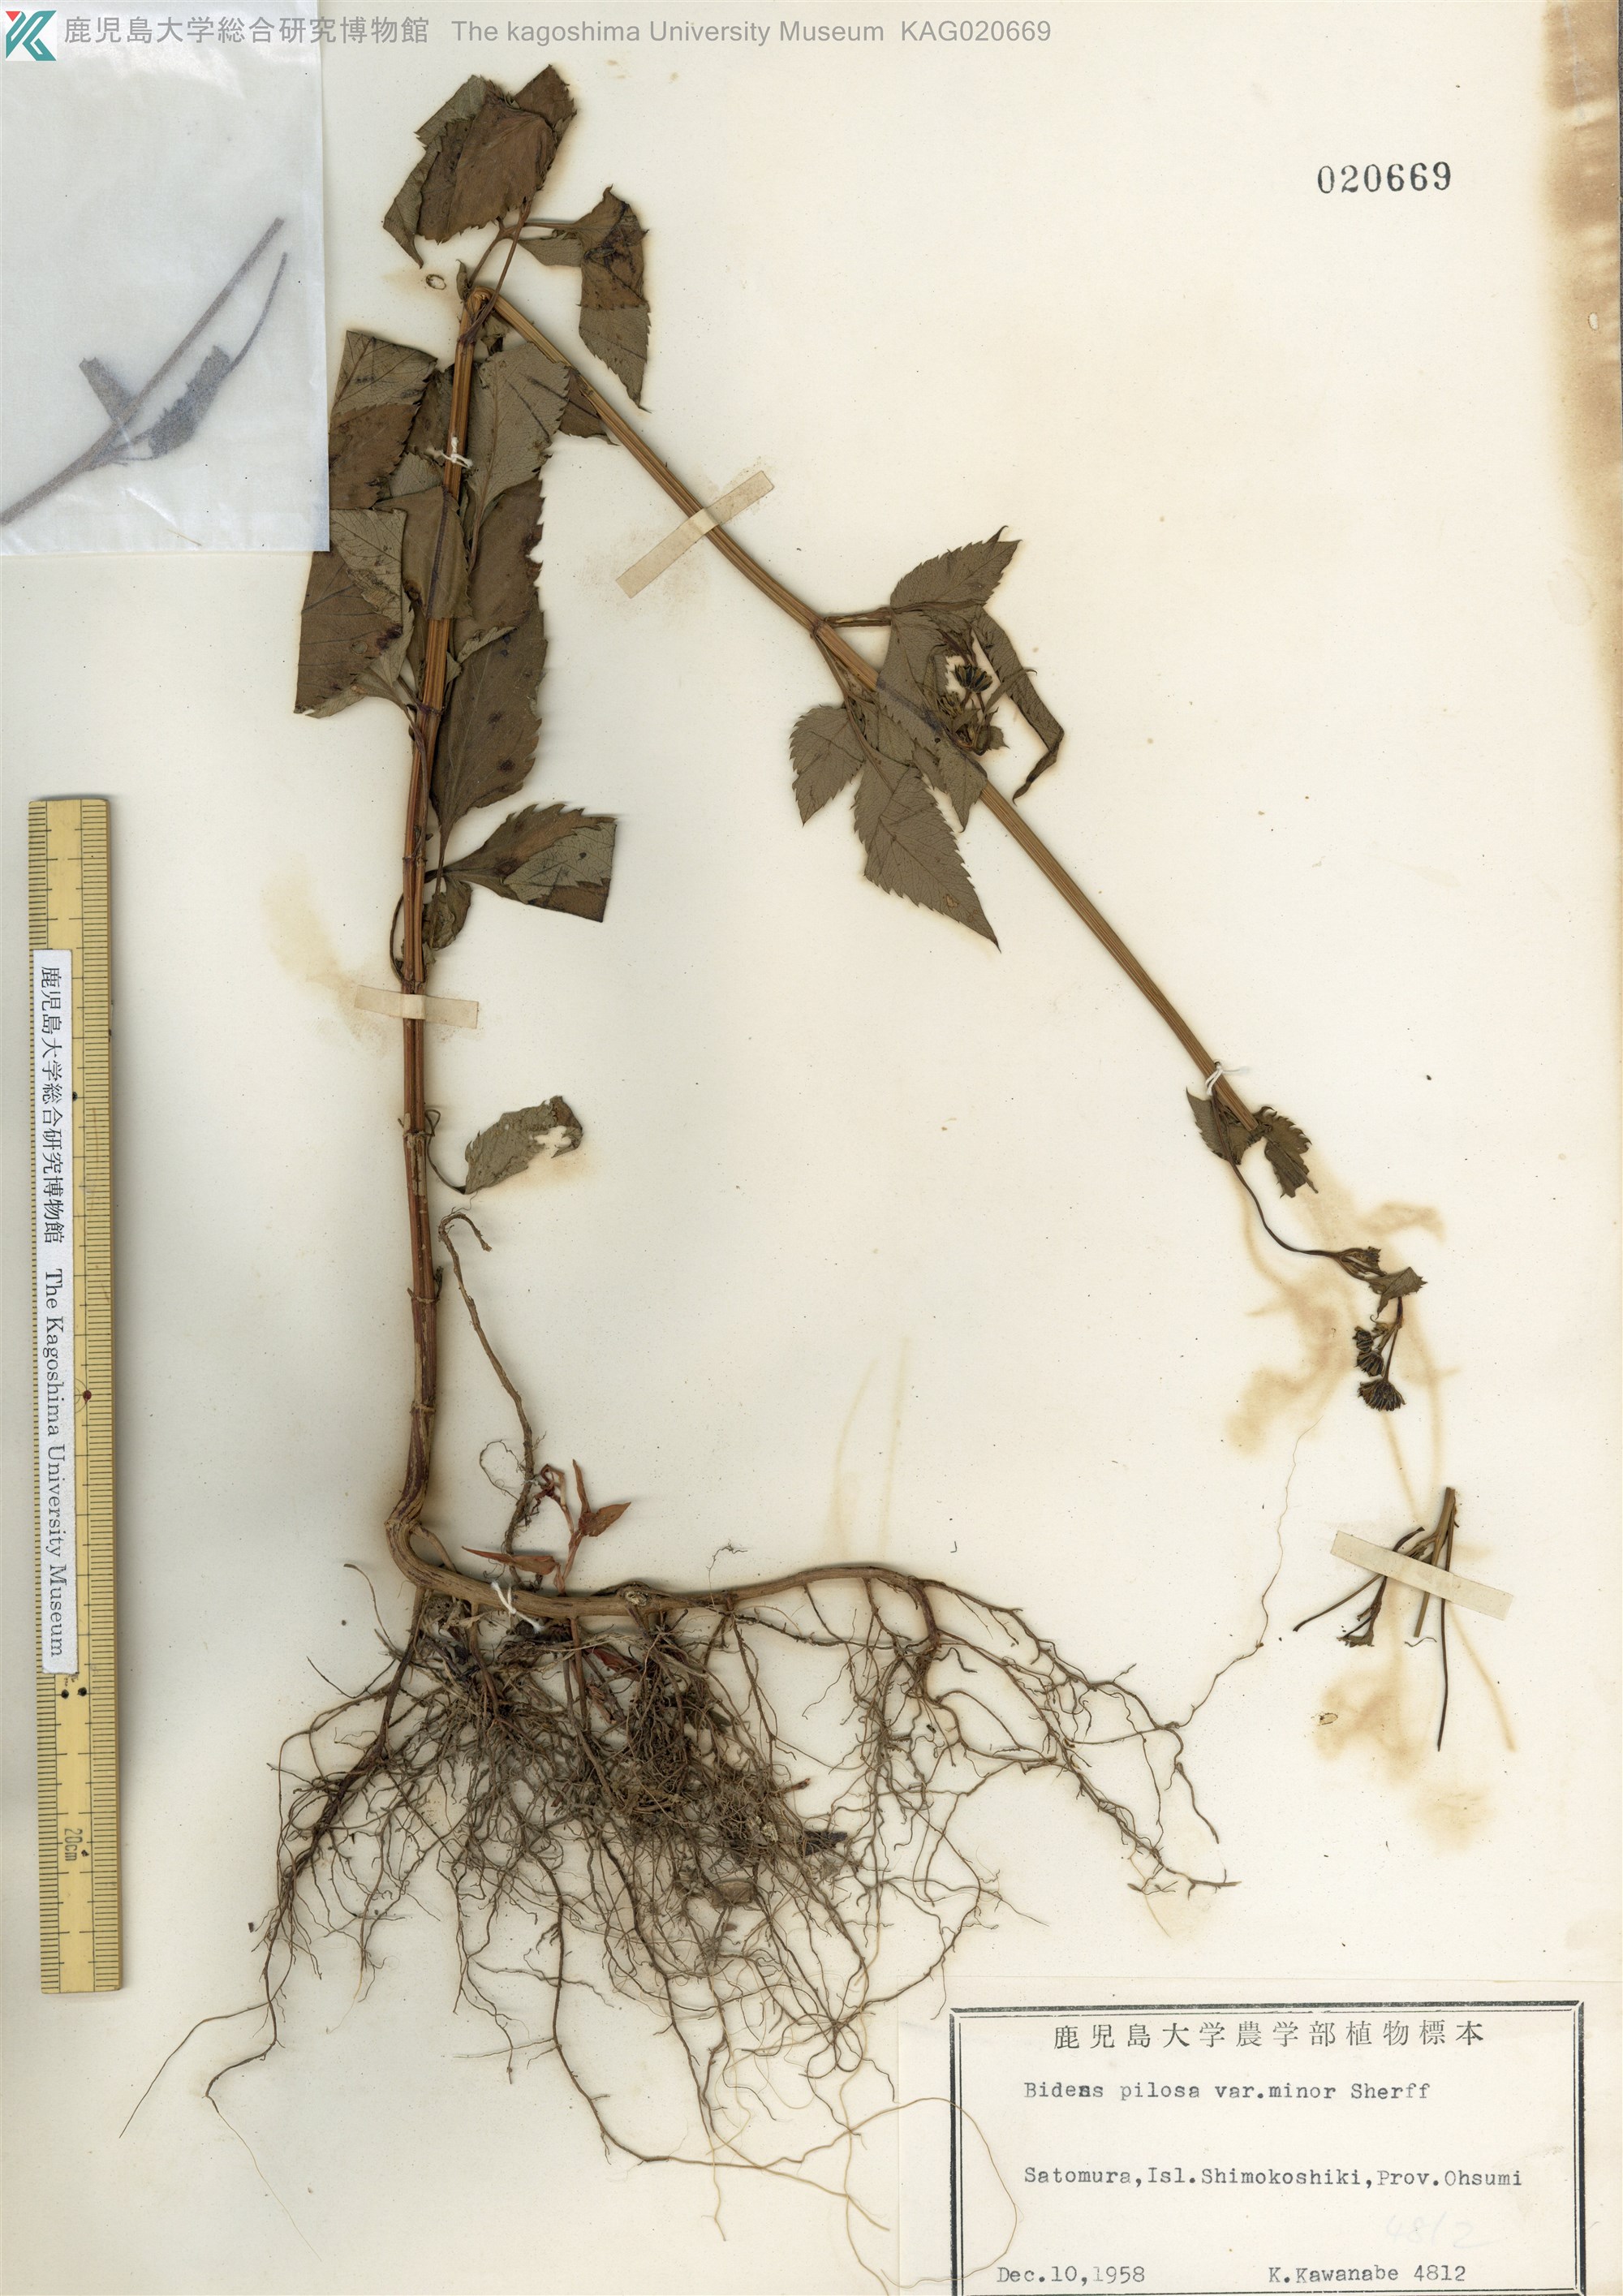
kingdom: Plantae
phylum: Tracheophyta
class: Magnoliopsida
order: Asterales
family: Asteraceae
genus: Bidens
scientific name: Bidens pilosa
